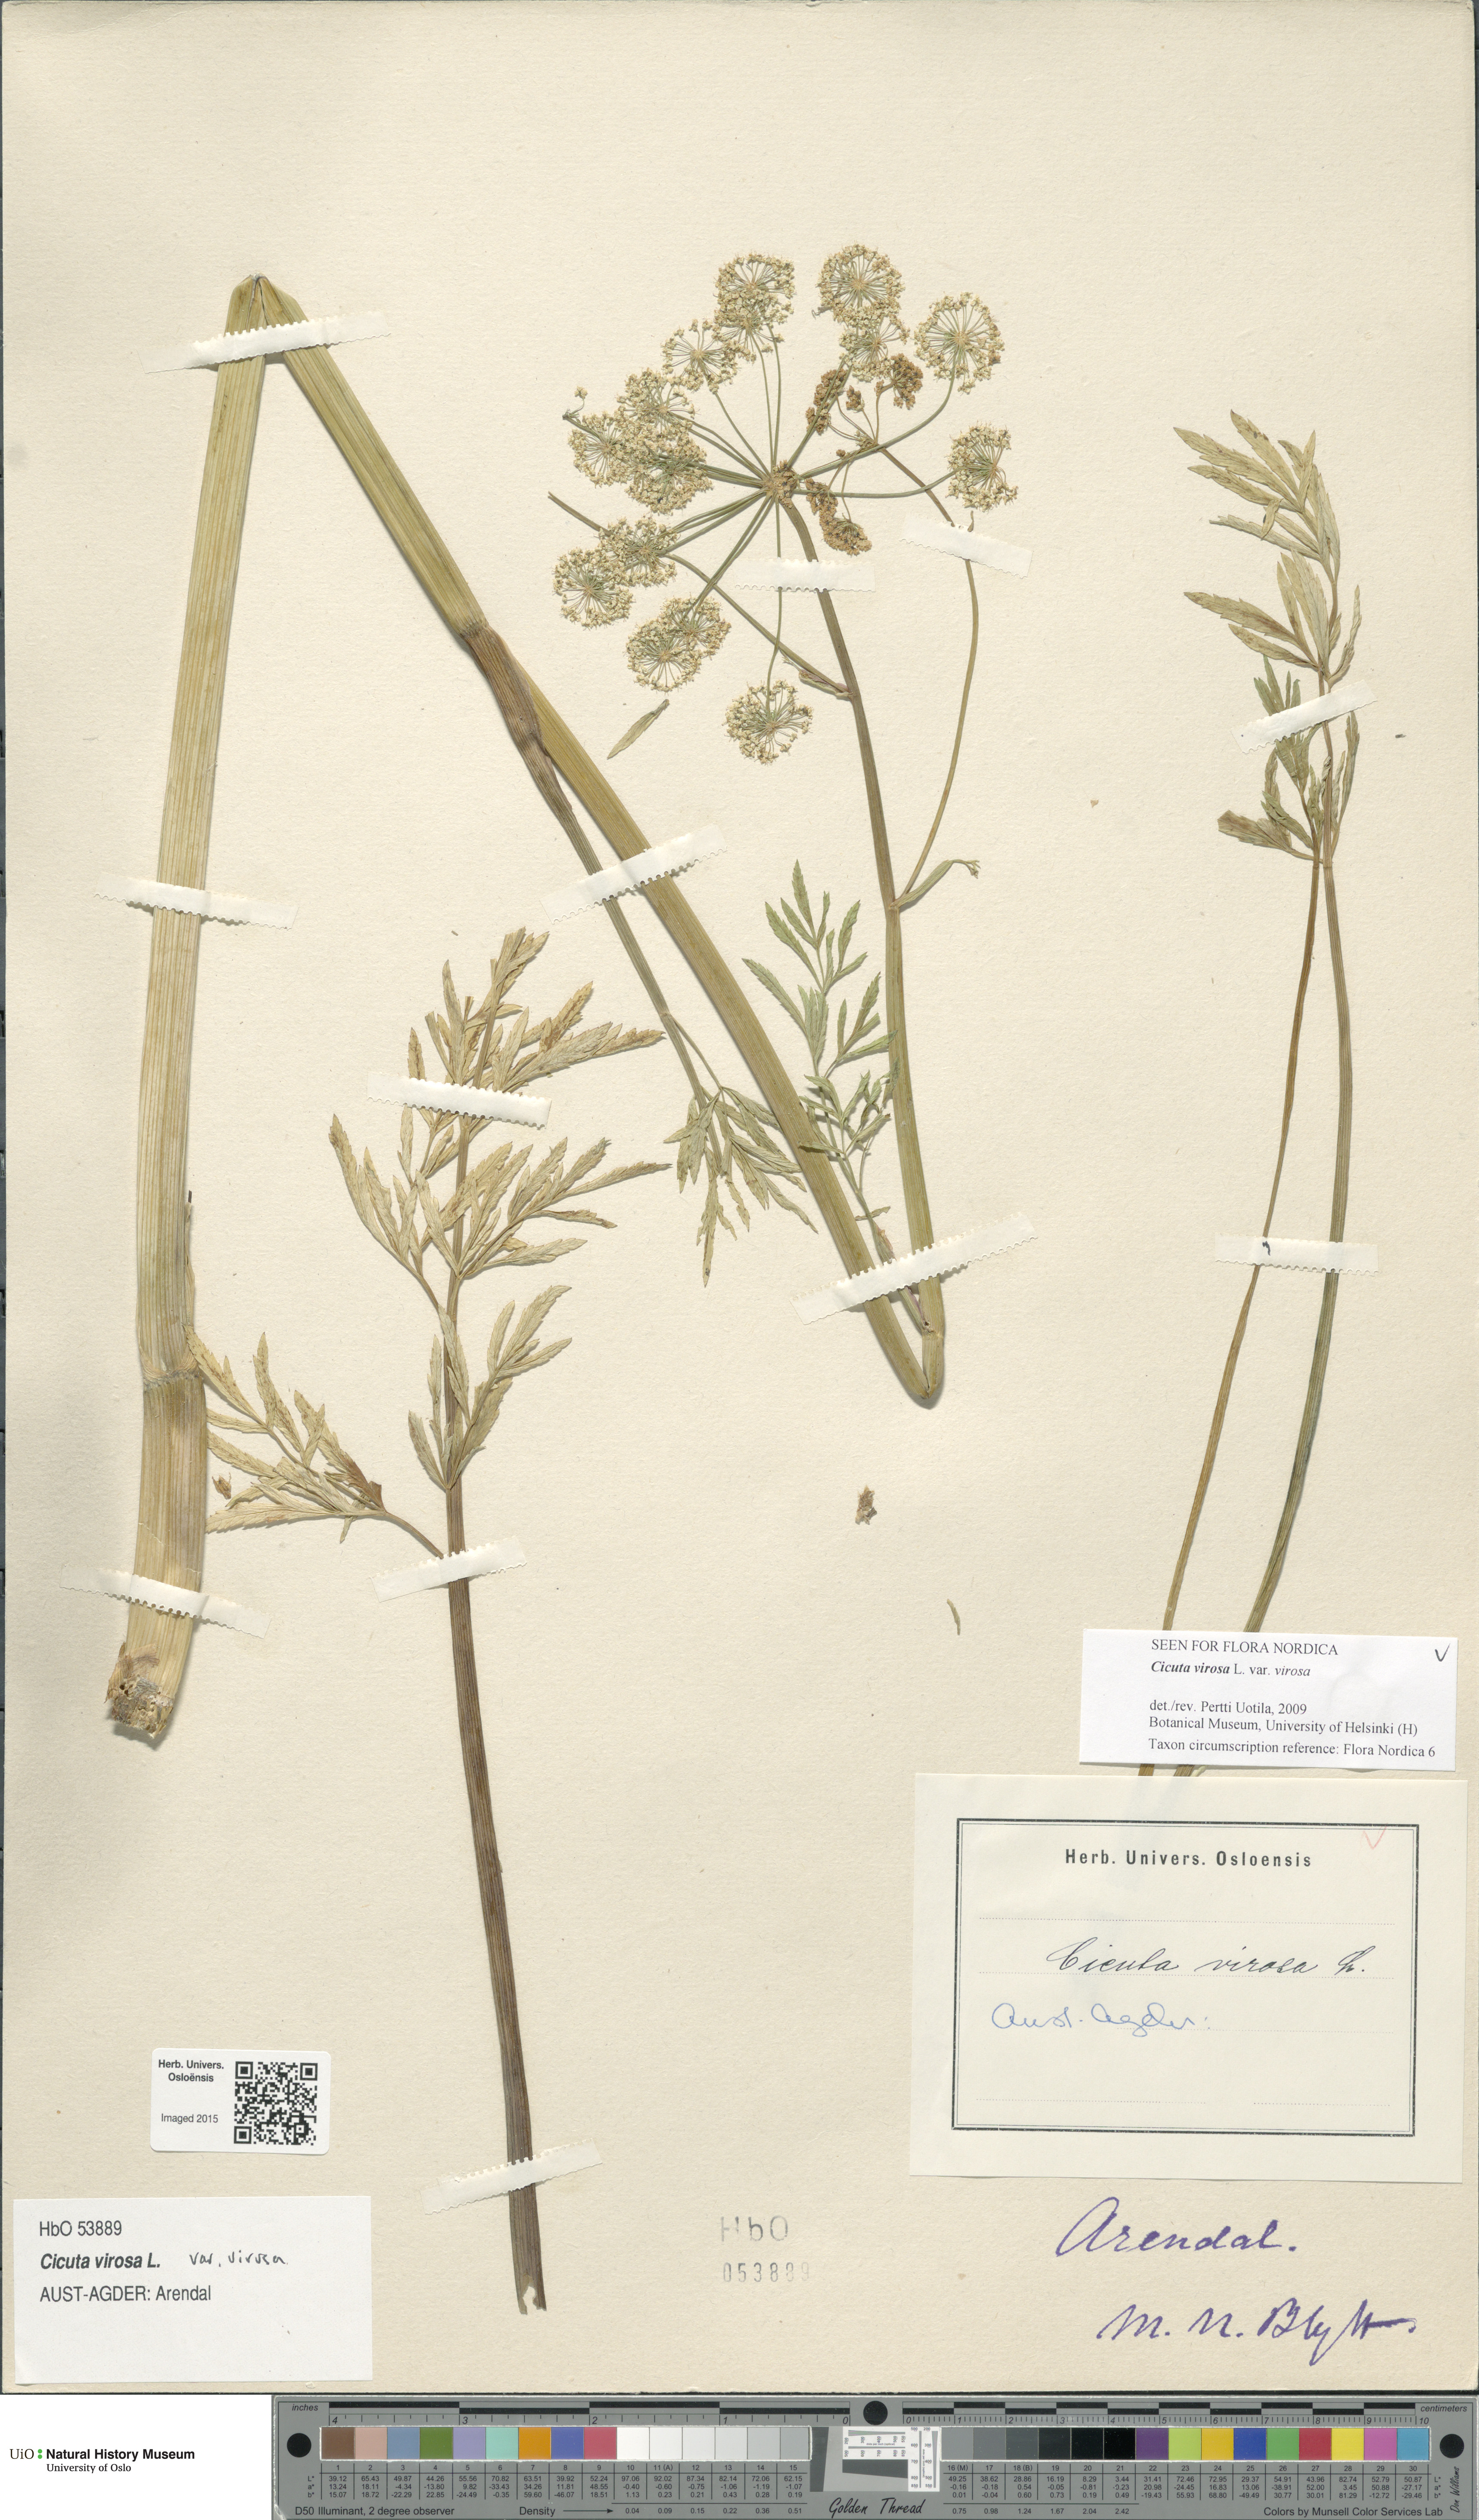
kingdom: Plantae
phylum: Tracheophyta
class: Magnoliopsida
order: Apiales
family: Apiaceae
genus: Cicuta
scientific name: Cicuta virosa
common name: Cowbane
